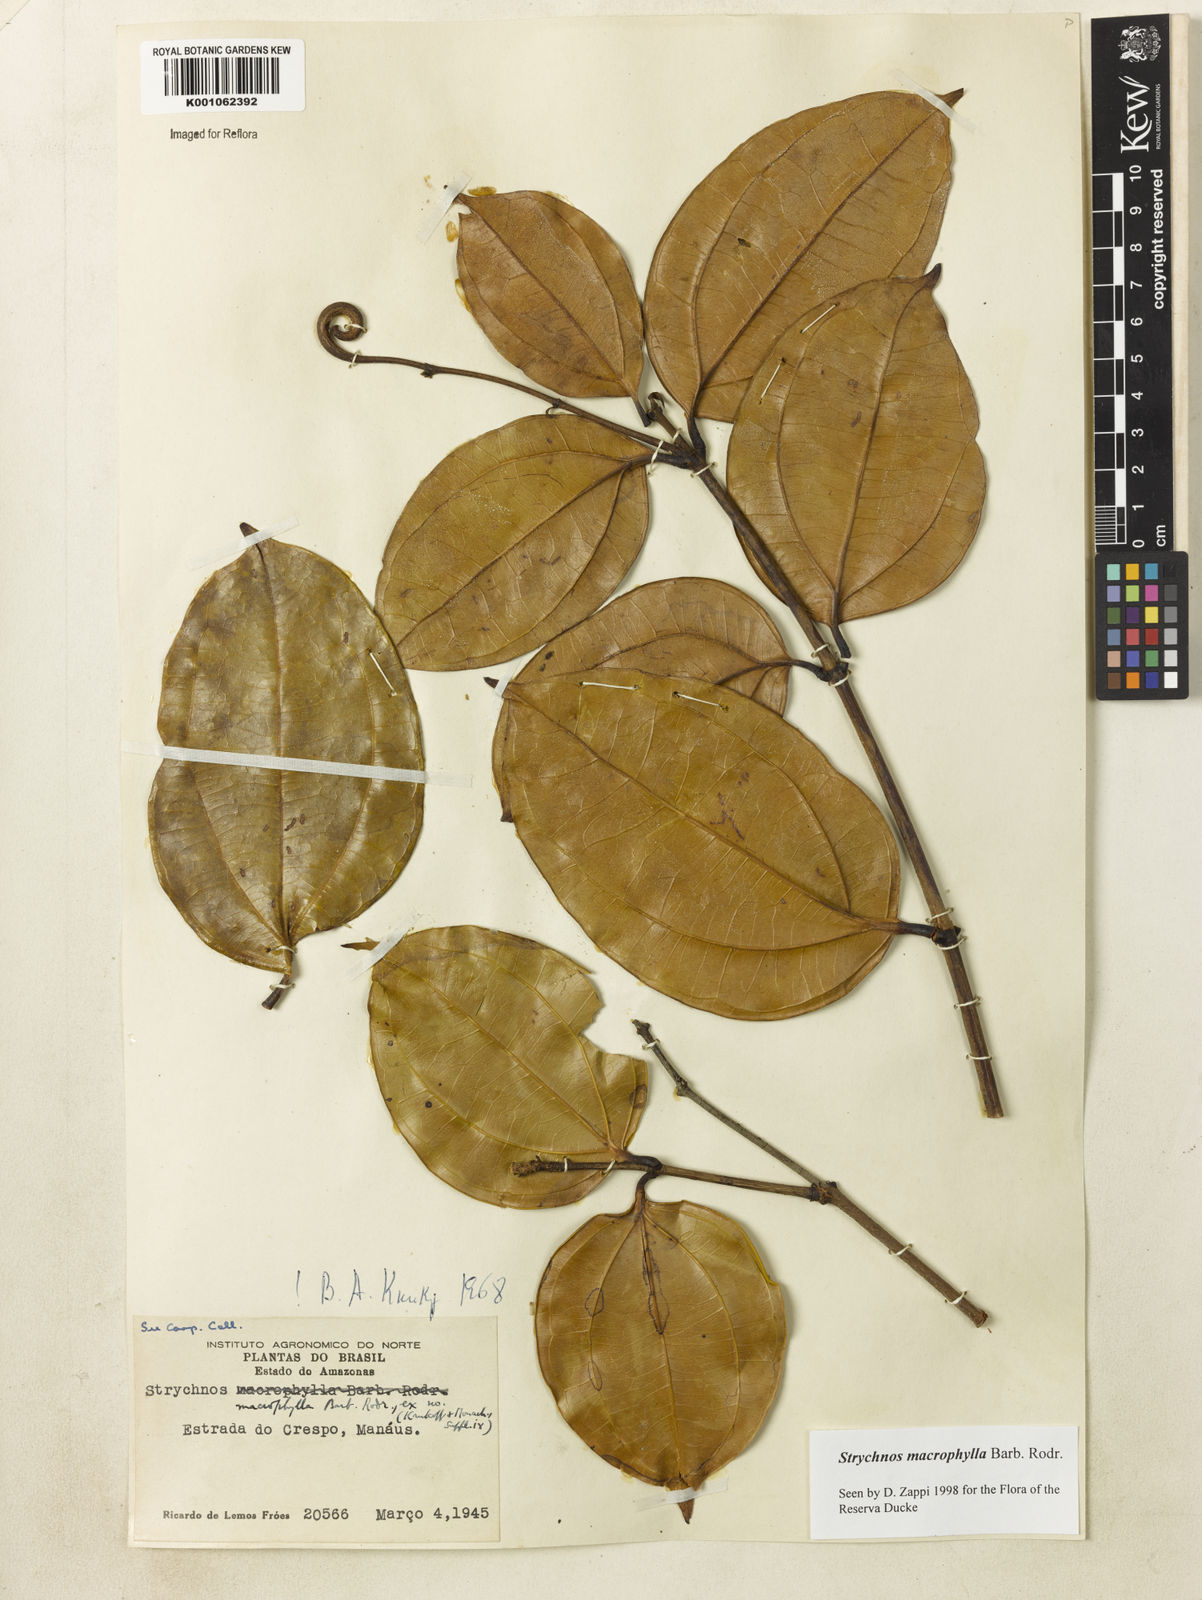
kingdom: Plantae
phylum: Tracheophyta
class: Magnoliopsida
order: Gentianales
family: Loganiaceae
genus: Strychnos
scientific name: Strychnos
